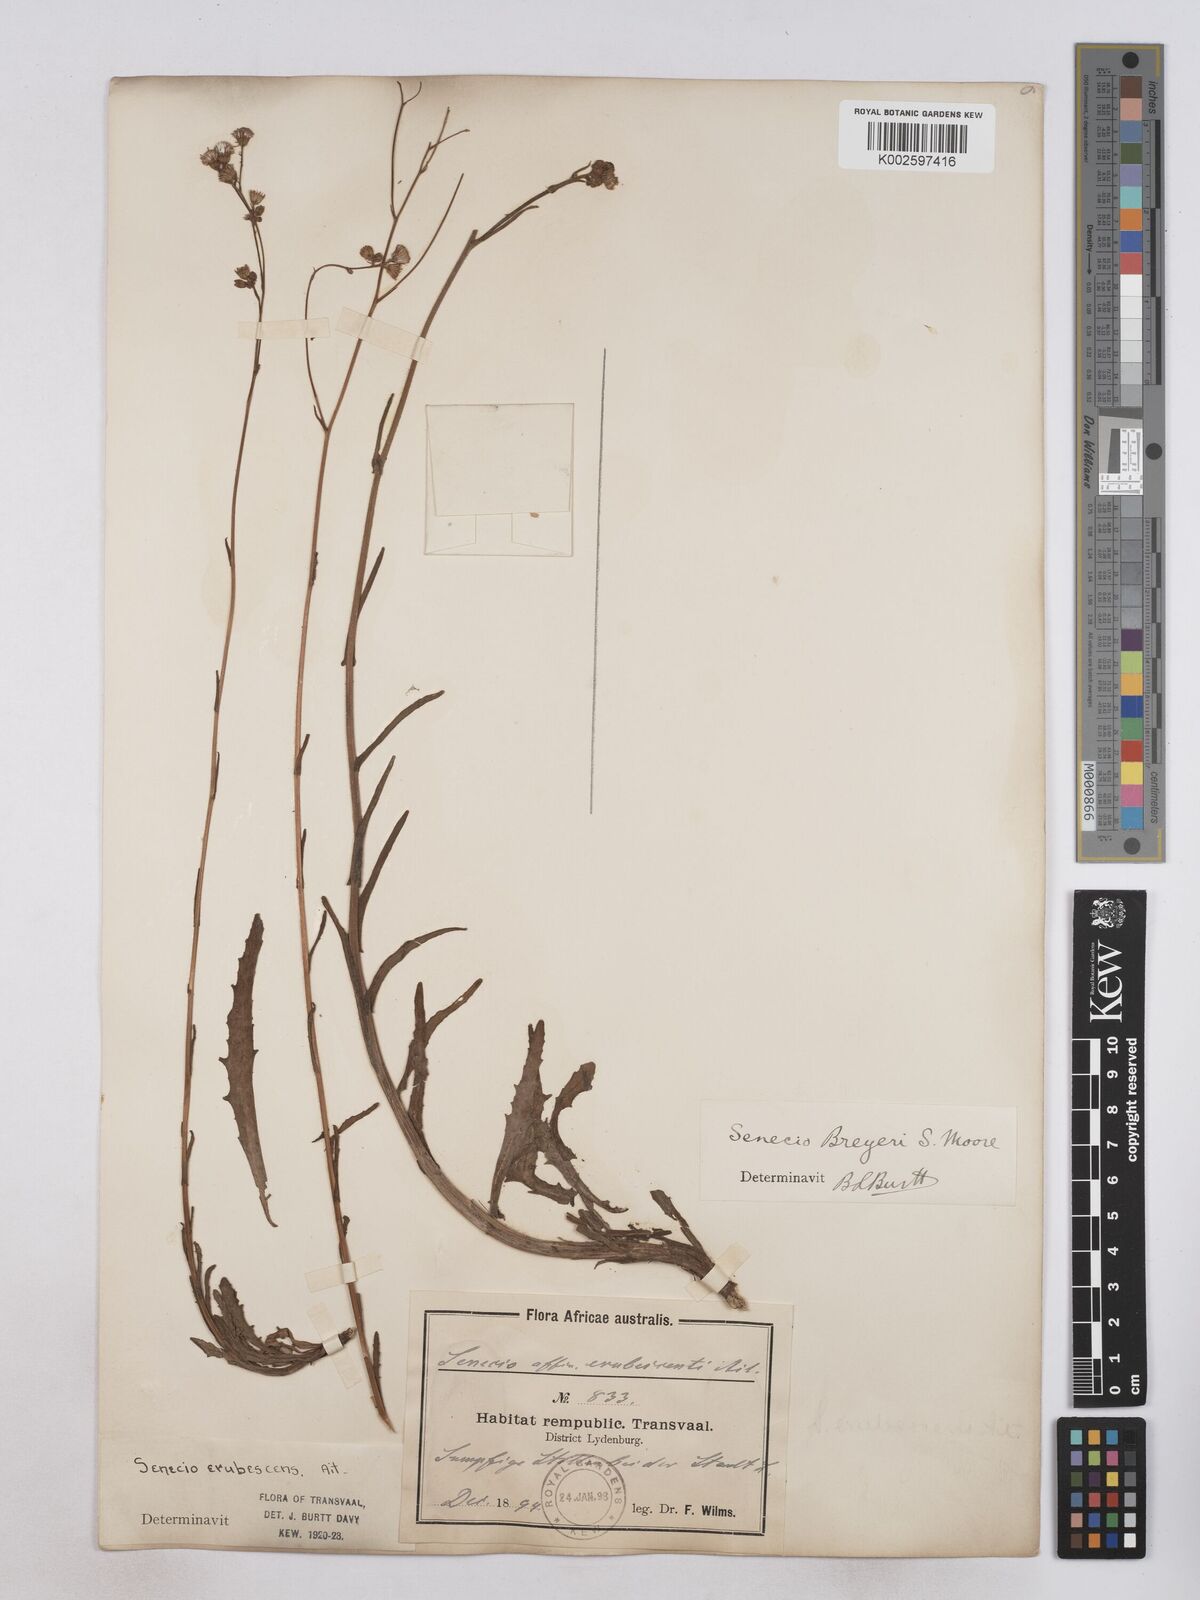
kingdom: Plantae
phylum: Tracheophyta
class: Magnoliopsida
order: Asterales
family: Asteraceae
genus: Senecio
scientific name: Senecio polyodon
